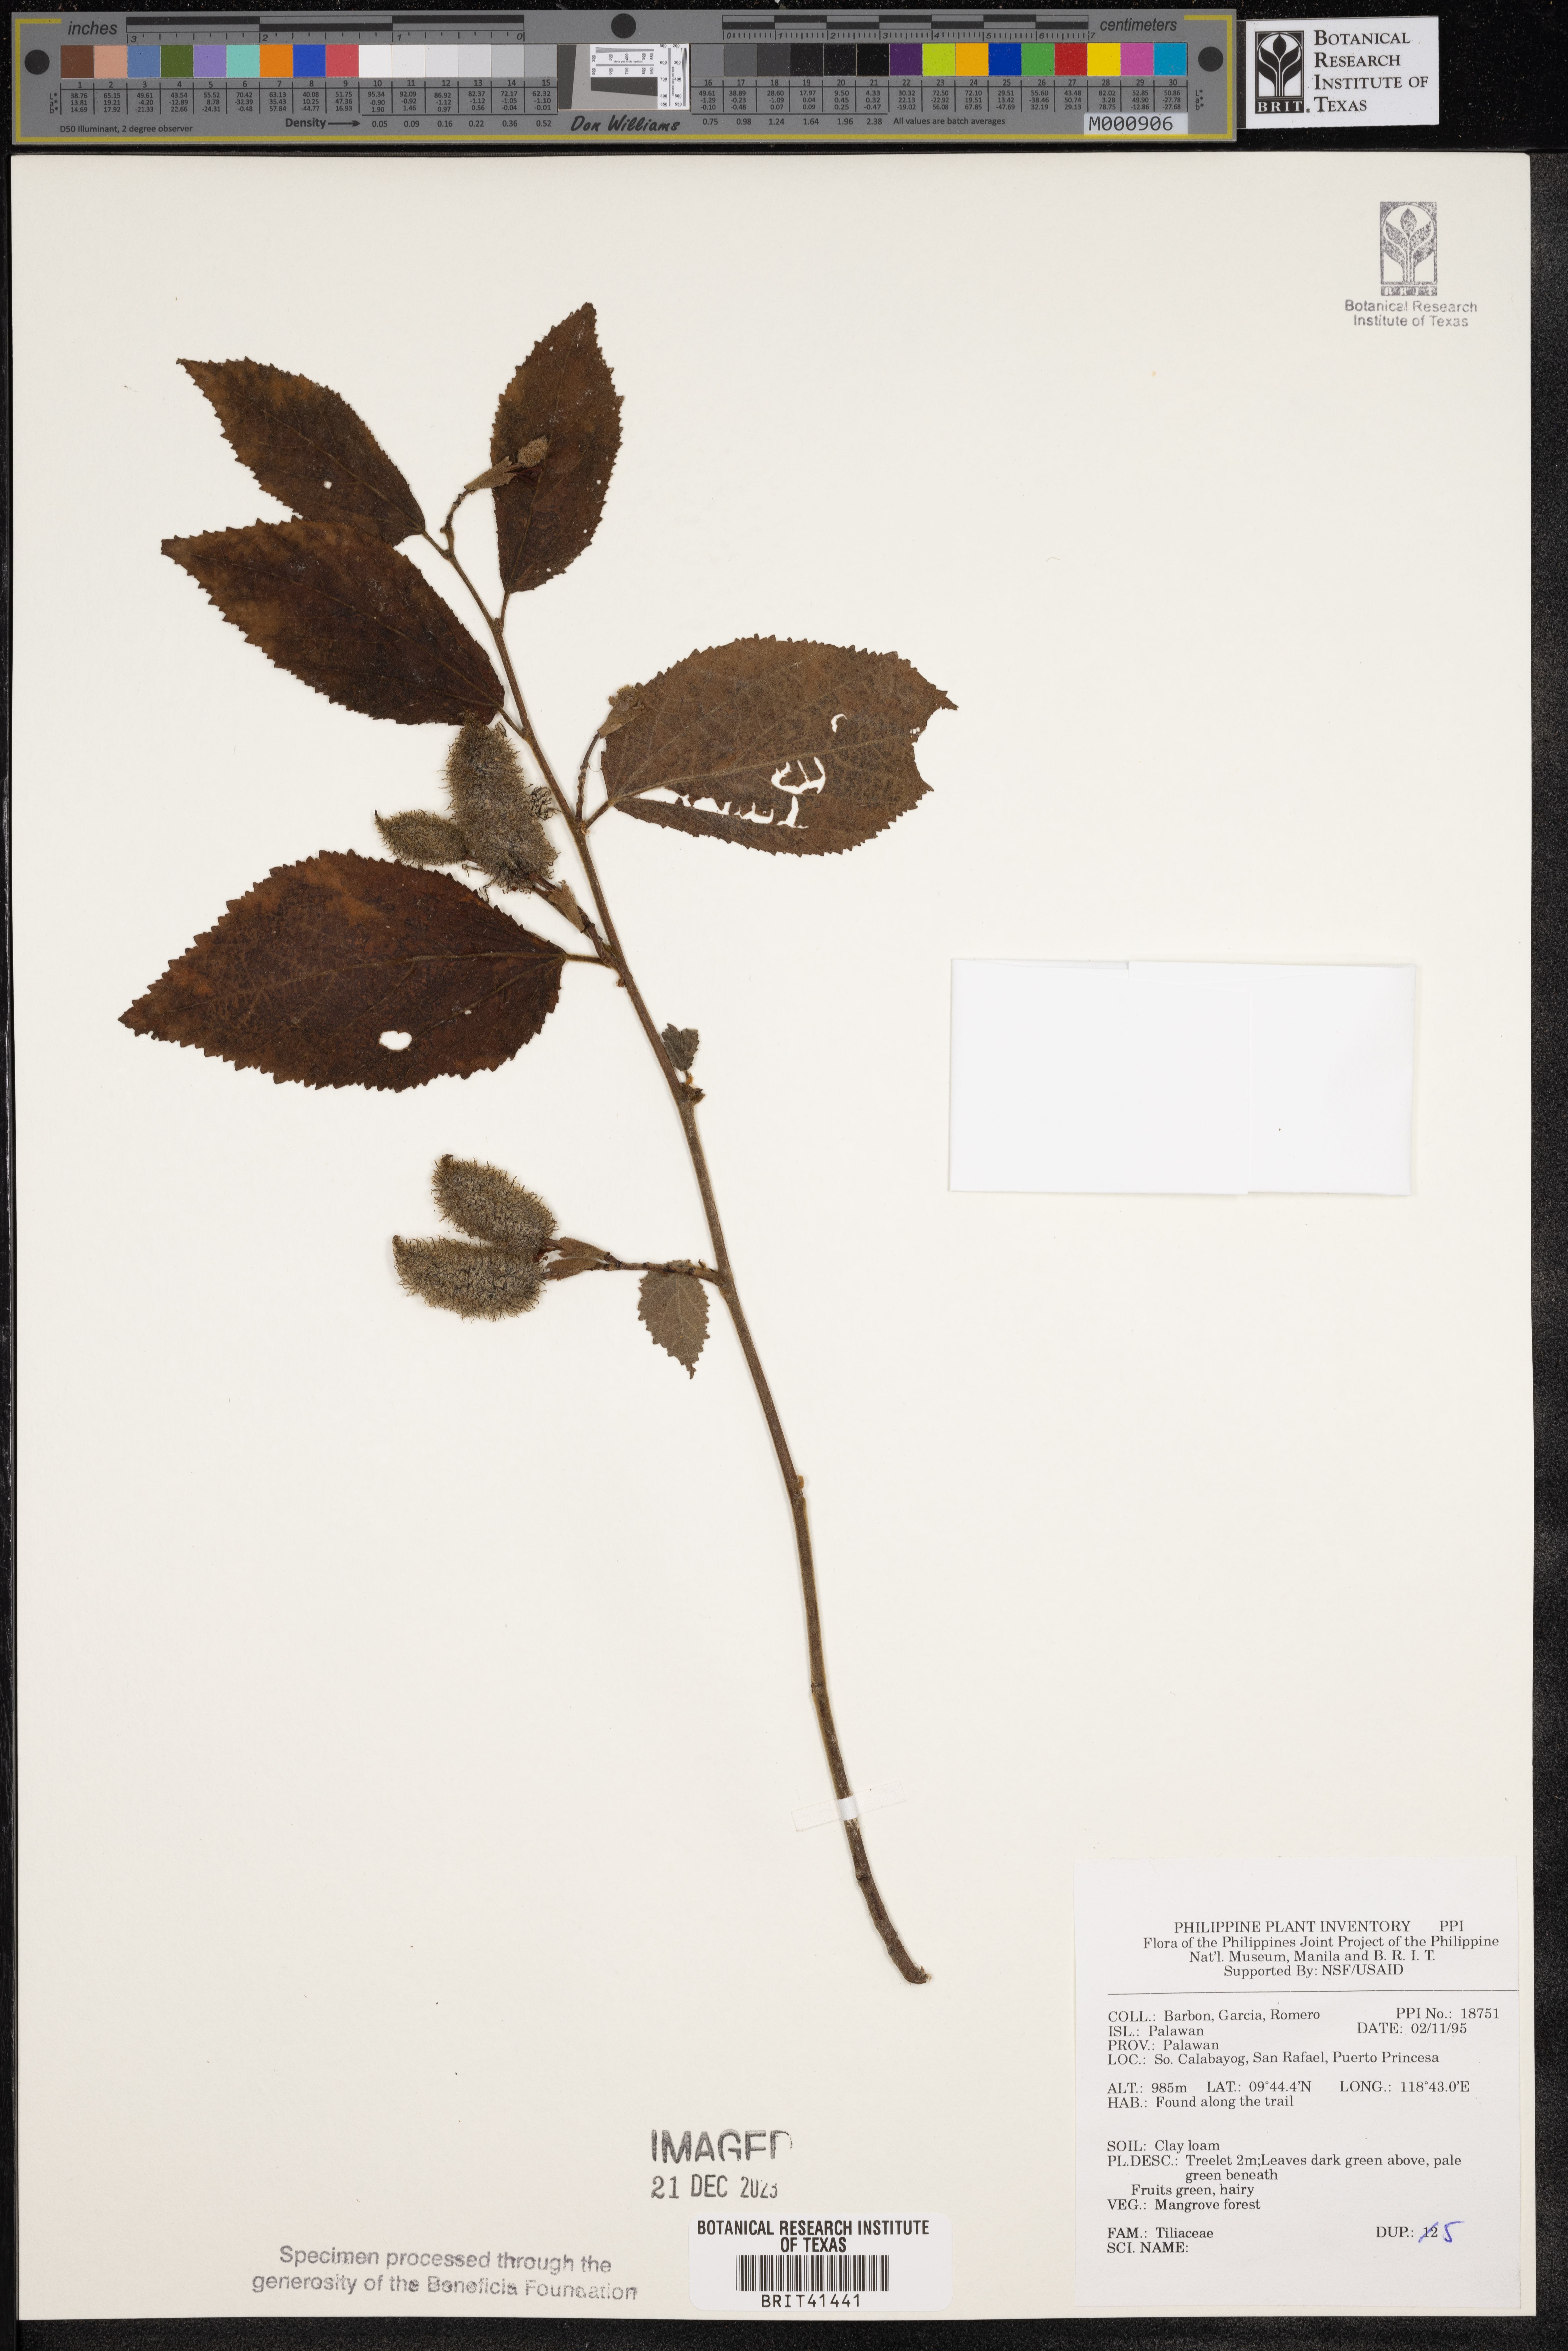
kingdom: Plantae
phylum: Tracheophyta
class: Magnoliopsida
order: Malvales
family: Tiliaceae
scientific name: Tiliaceae
